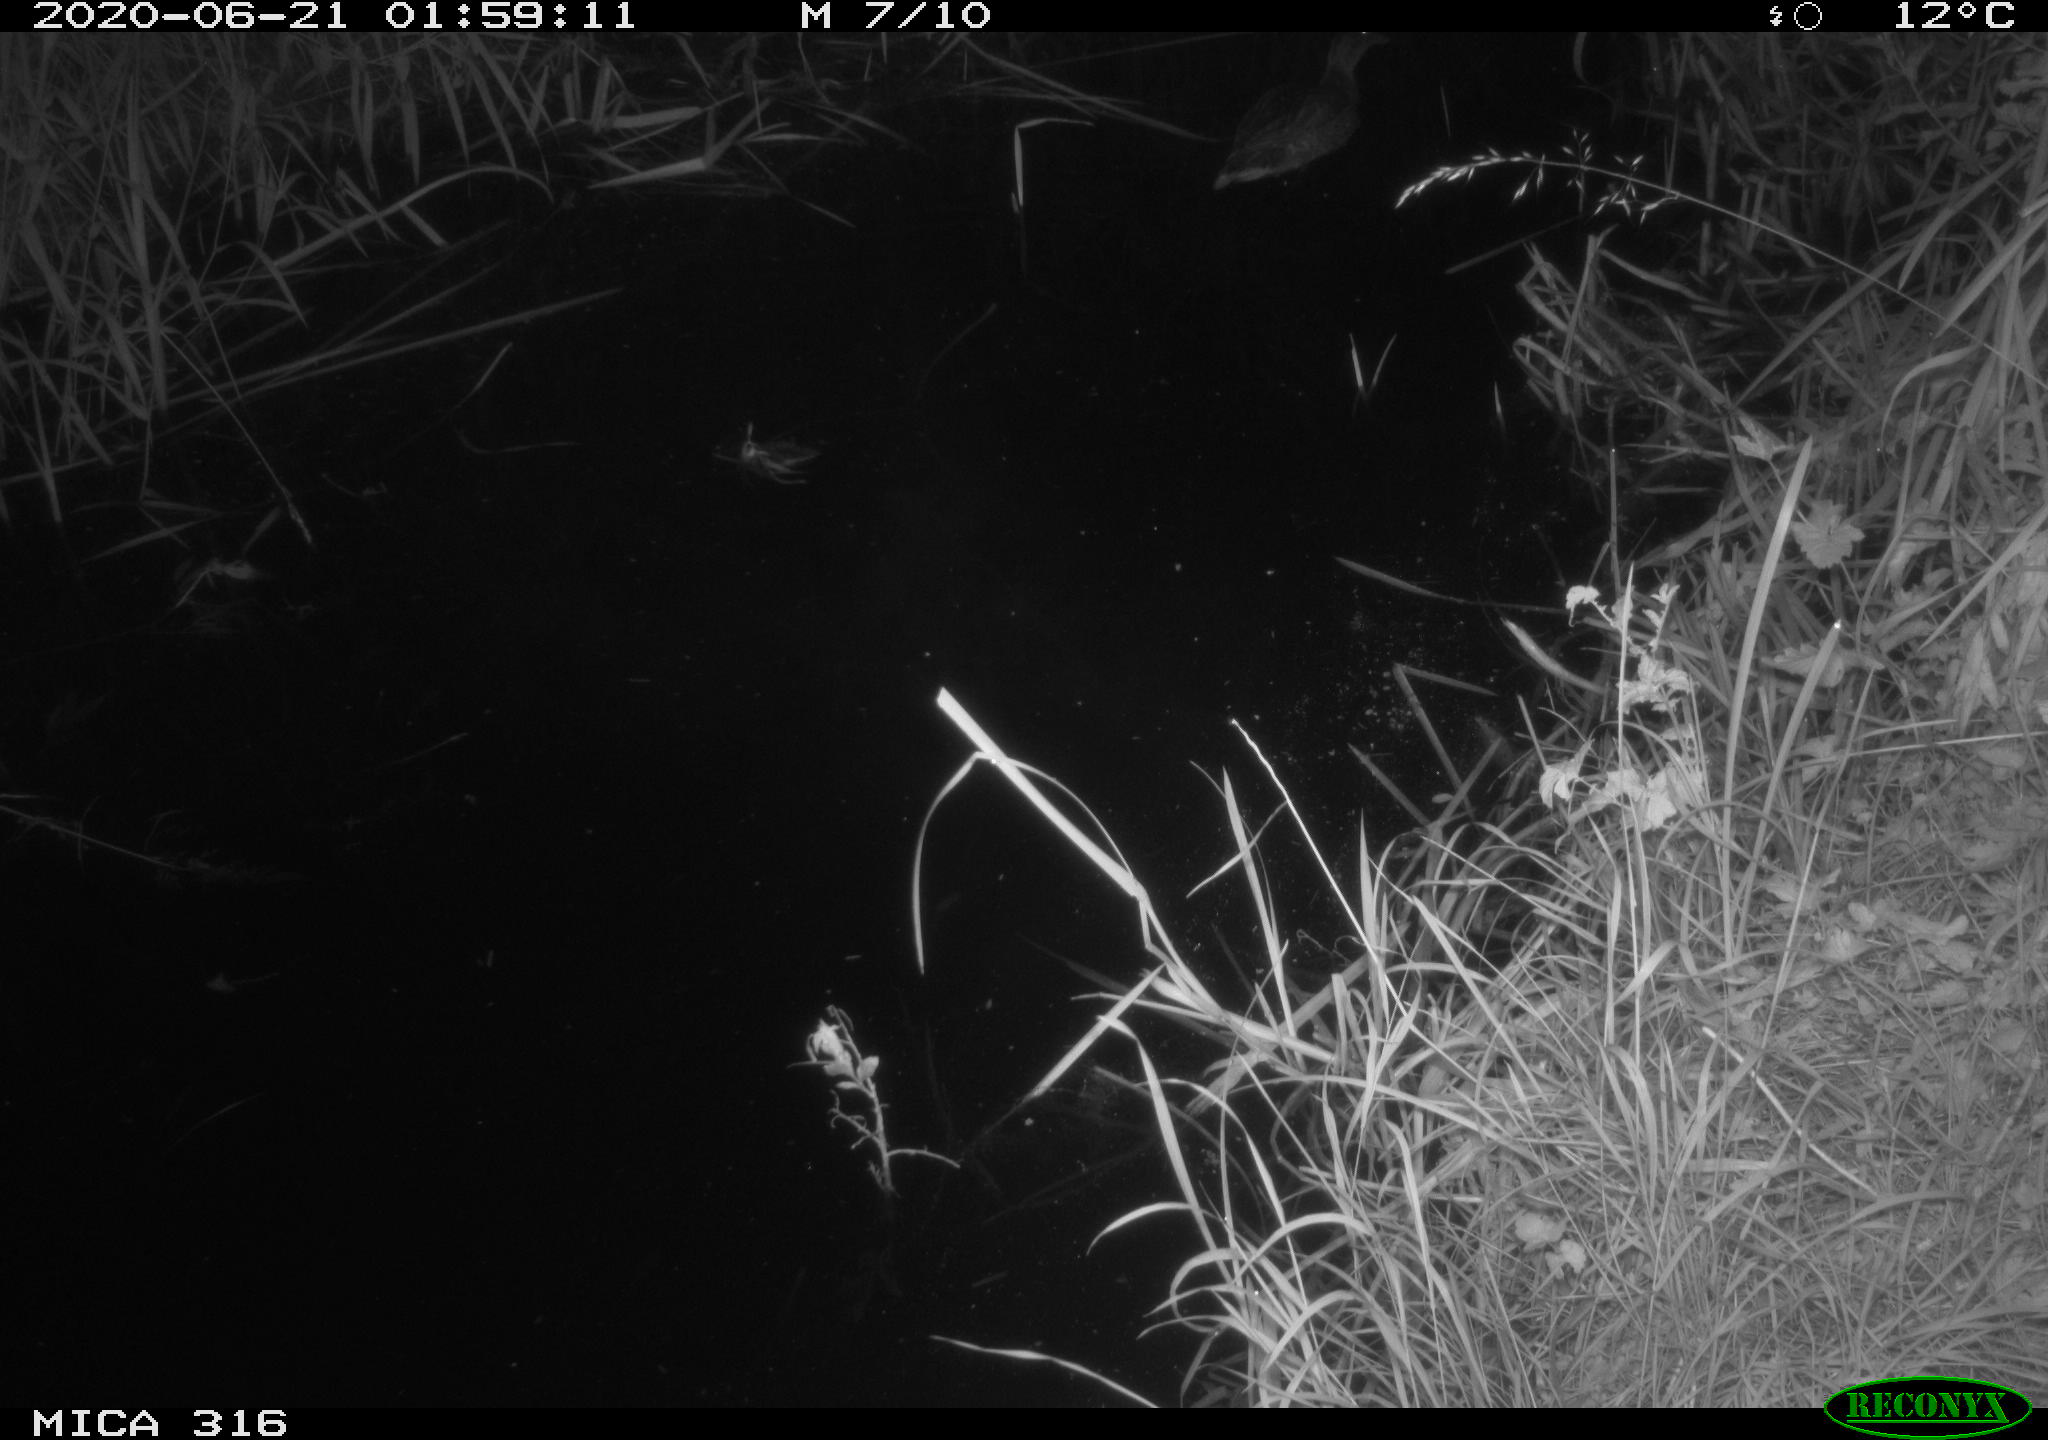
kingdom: Animalia
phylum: Chordata
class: Aves
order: Anseriformes
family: Anatidae
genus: Anas
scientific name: Anas platyrhynchos
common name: Mallard
